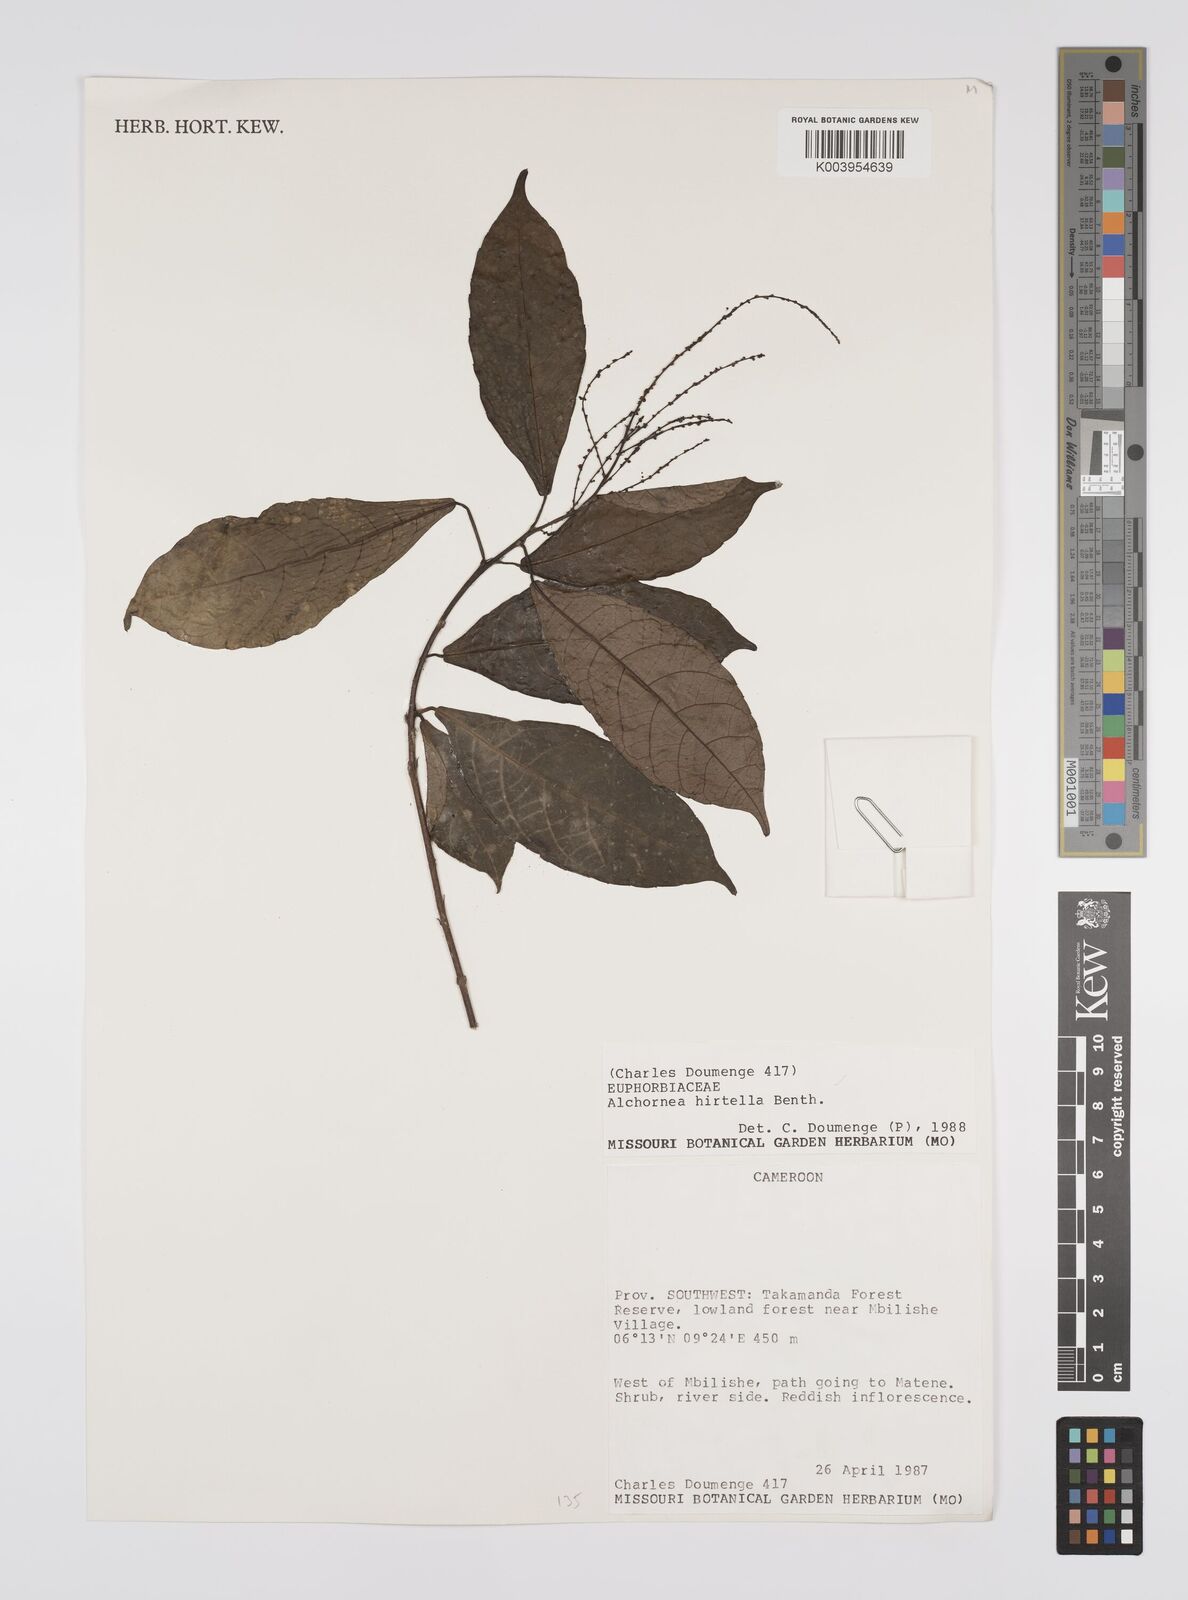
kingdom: Plantae
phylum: Tracheophyta
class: Magnoliopsida
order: Malpighiales
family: Euphorbiaceae
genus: Alchornea
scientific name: Alchornea hirtella
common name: Forest bead-string
